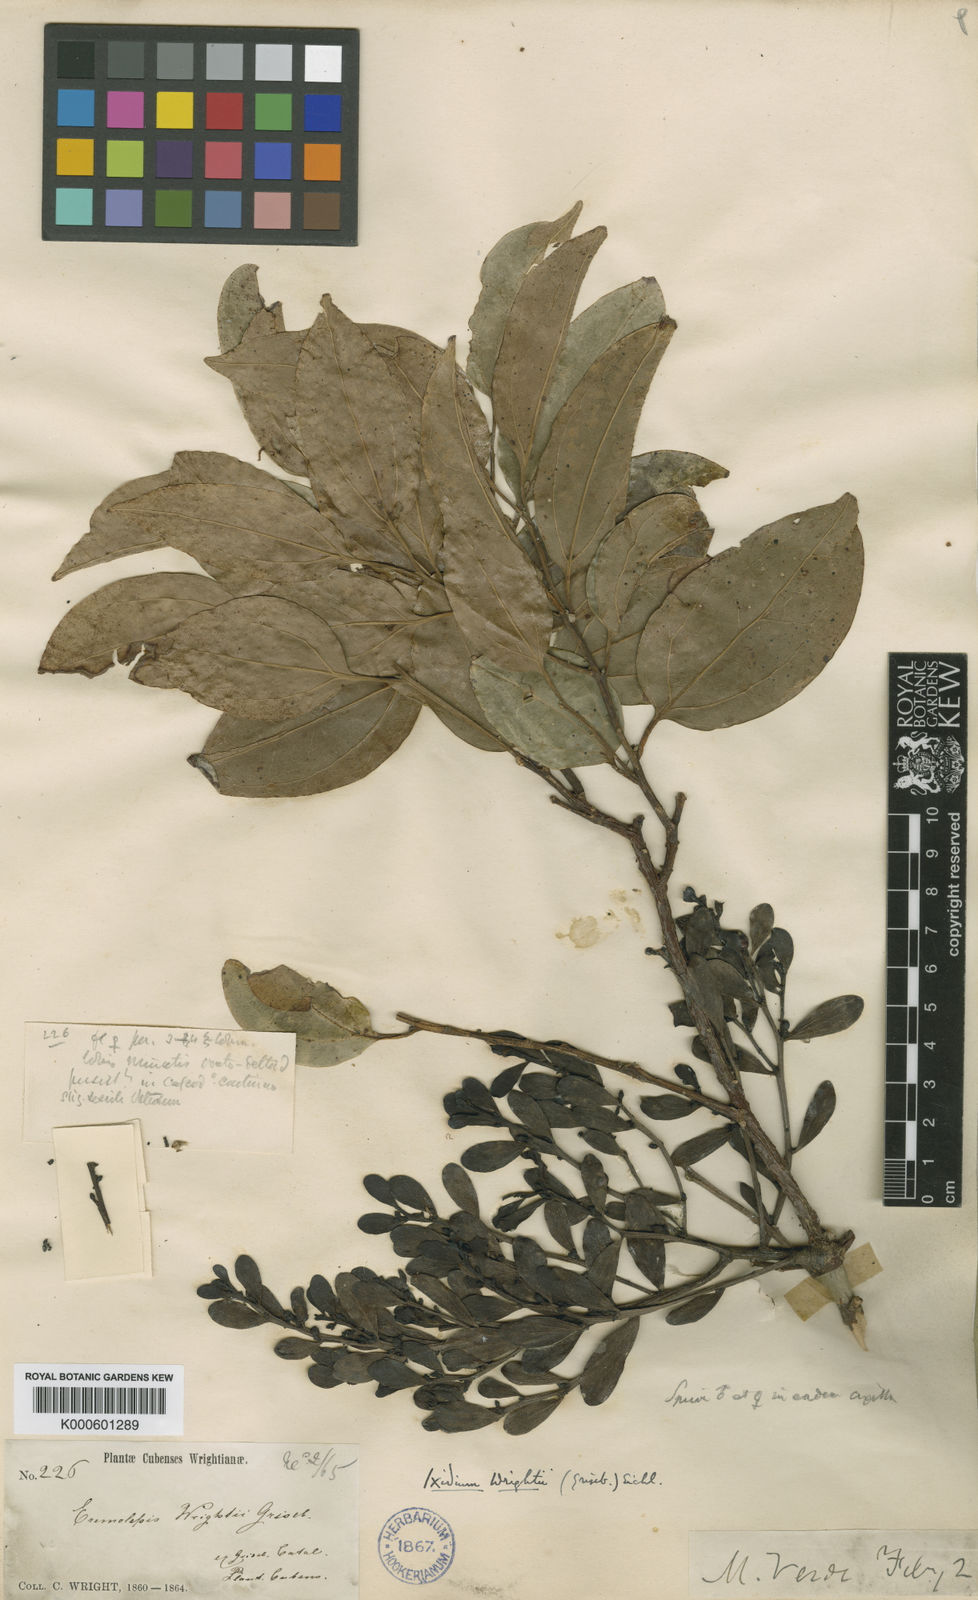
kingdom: Plantae
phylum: Tracheophyta
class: Magnoliopsida
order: Santalales
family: Santalaceae
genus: Antidaphne
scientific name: Antidaphne wrightii
